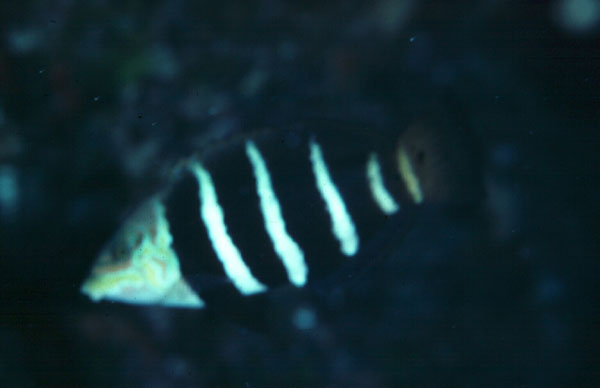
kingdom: Animalia
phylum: Chordata
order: Perciformes
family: Labridae
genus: Hemigymnus
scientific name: Hemigymnus fasciatus
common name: Barred thicklip
